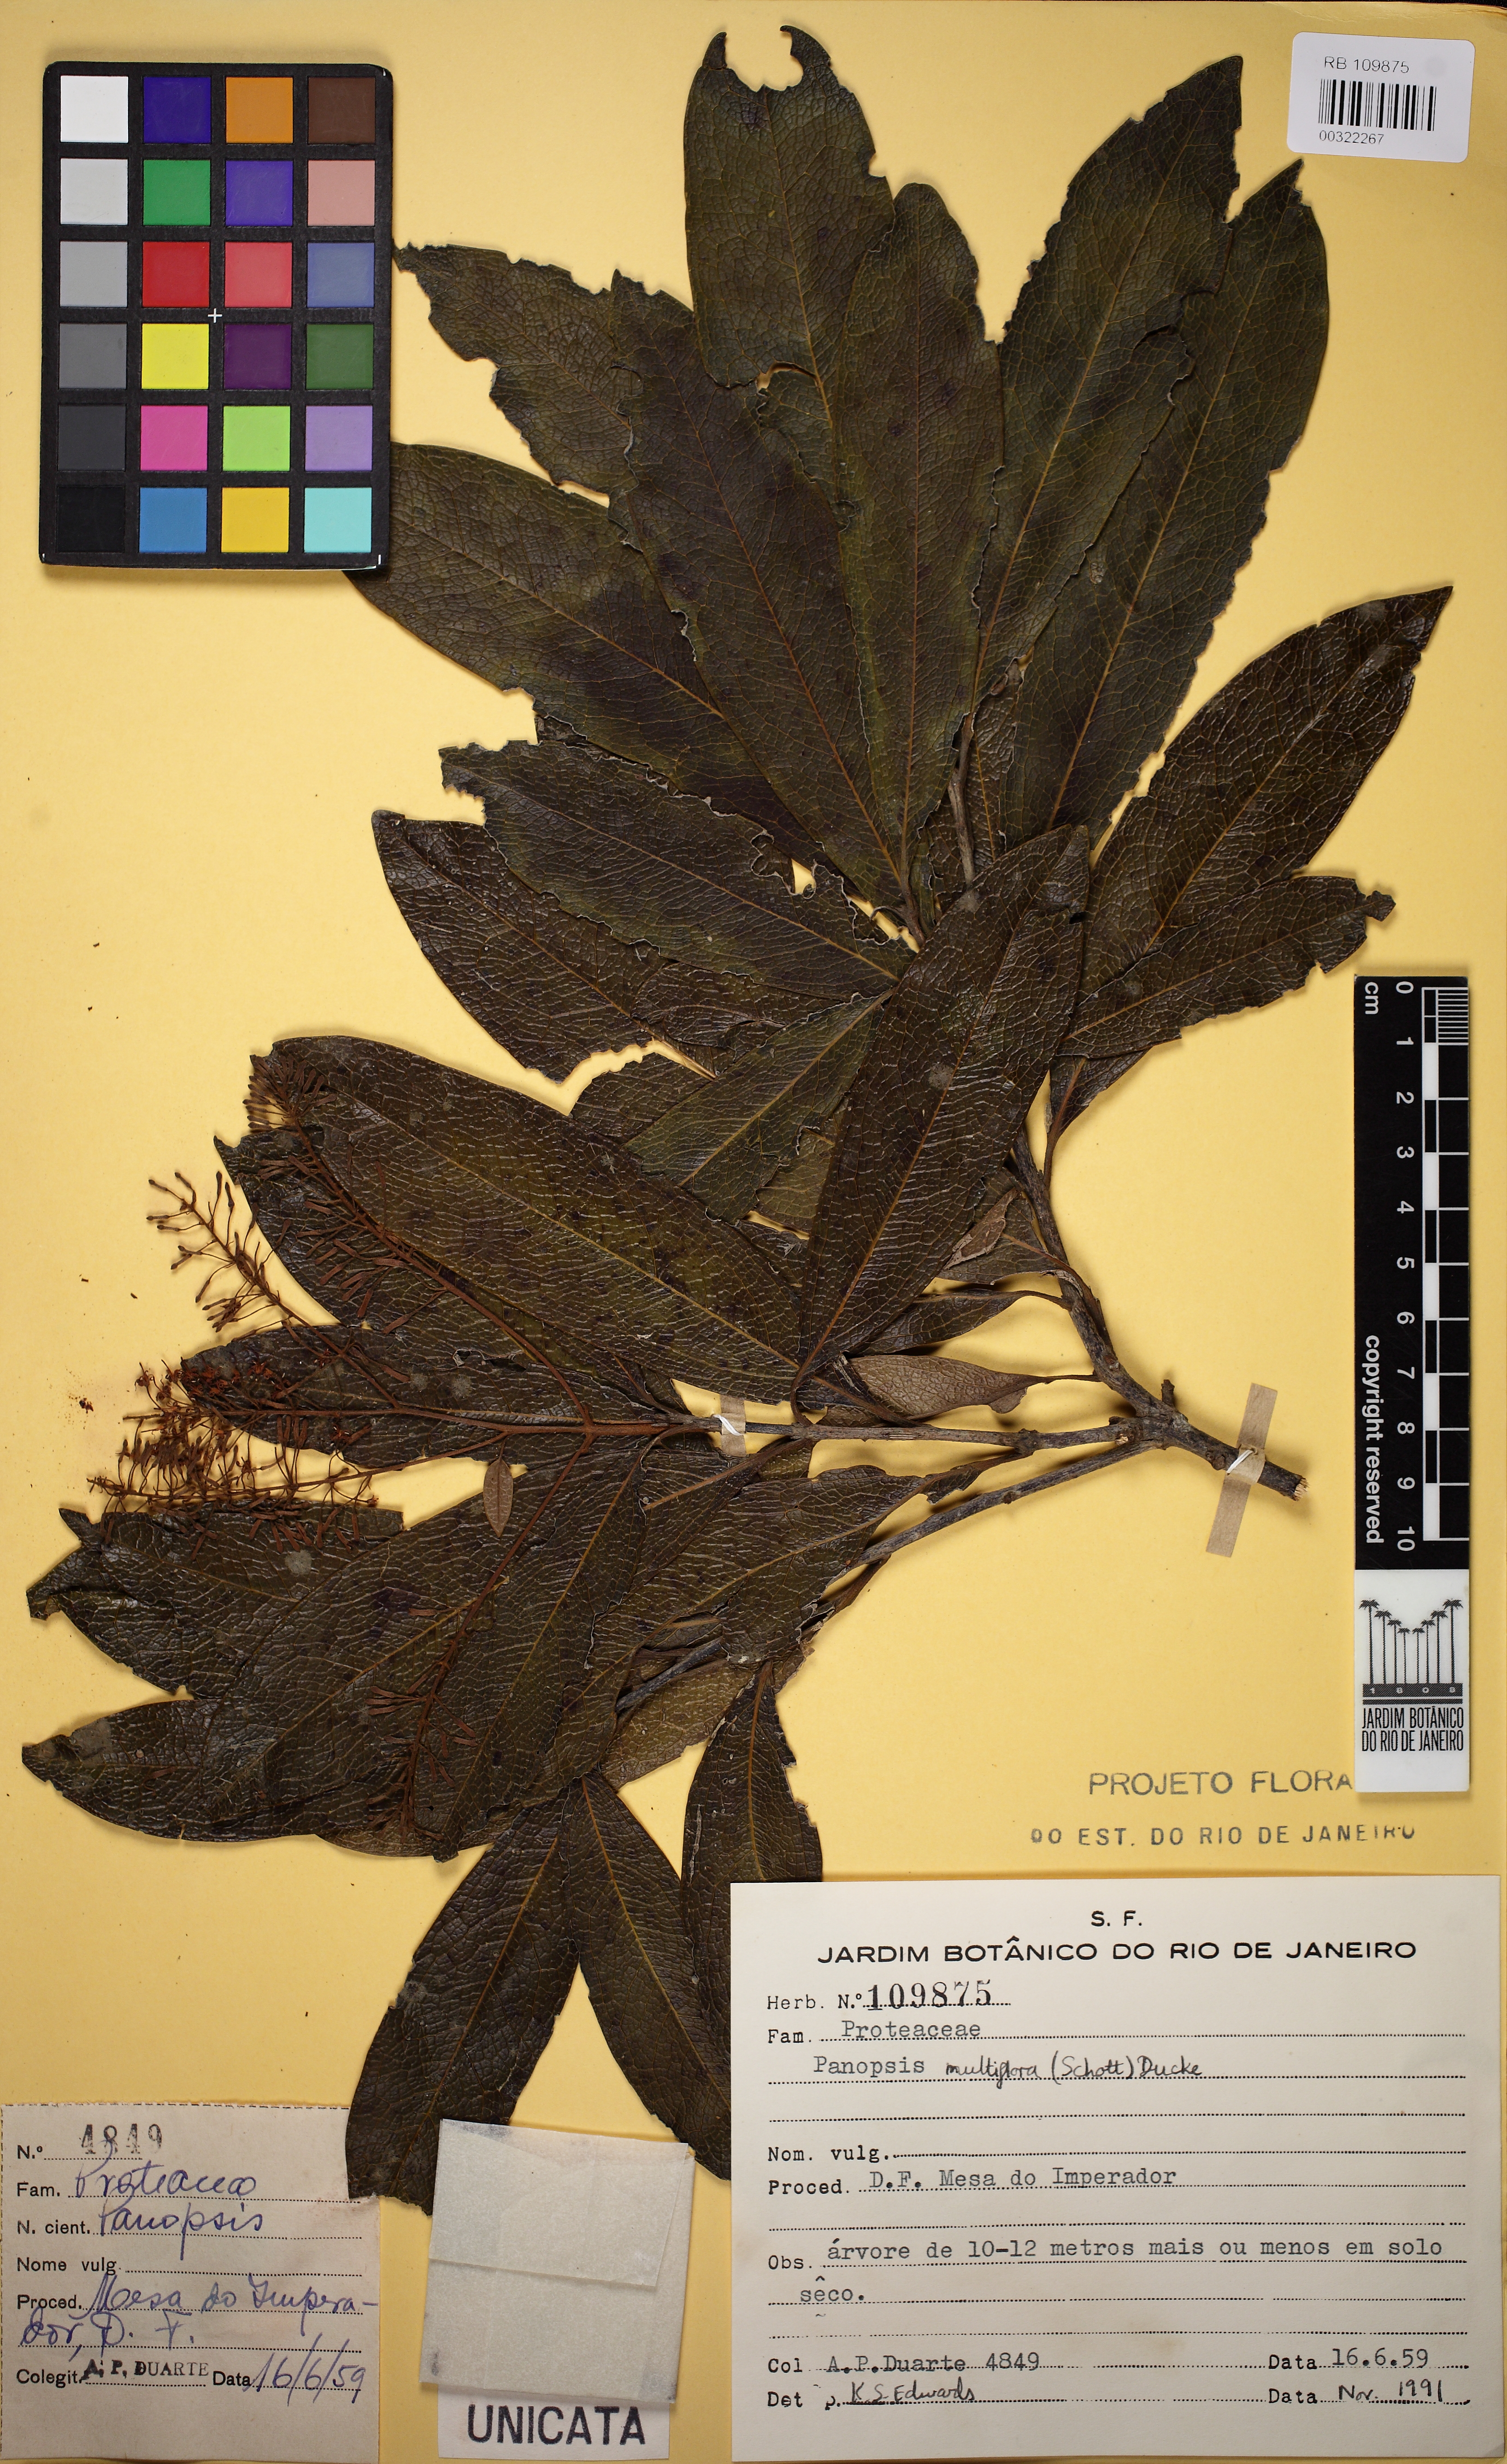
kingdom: Plantae
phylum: Tracheophyta
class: Magnoliopsida
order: Proteales
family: Proteaceae
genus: Panopsis
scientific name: Panopsis multiflora
